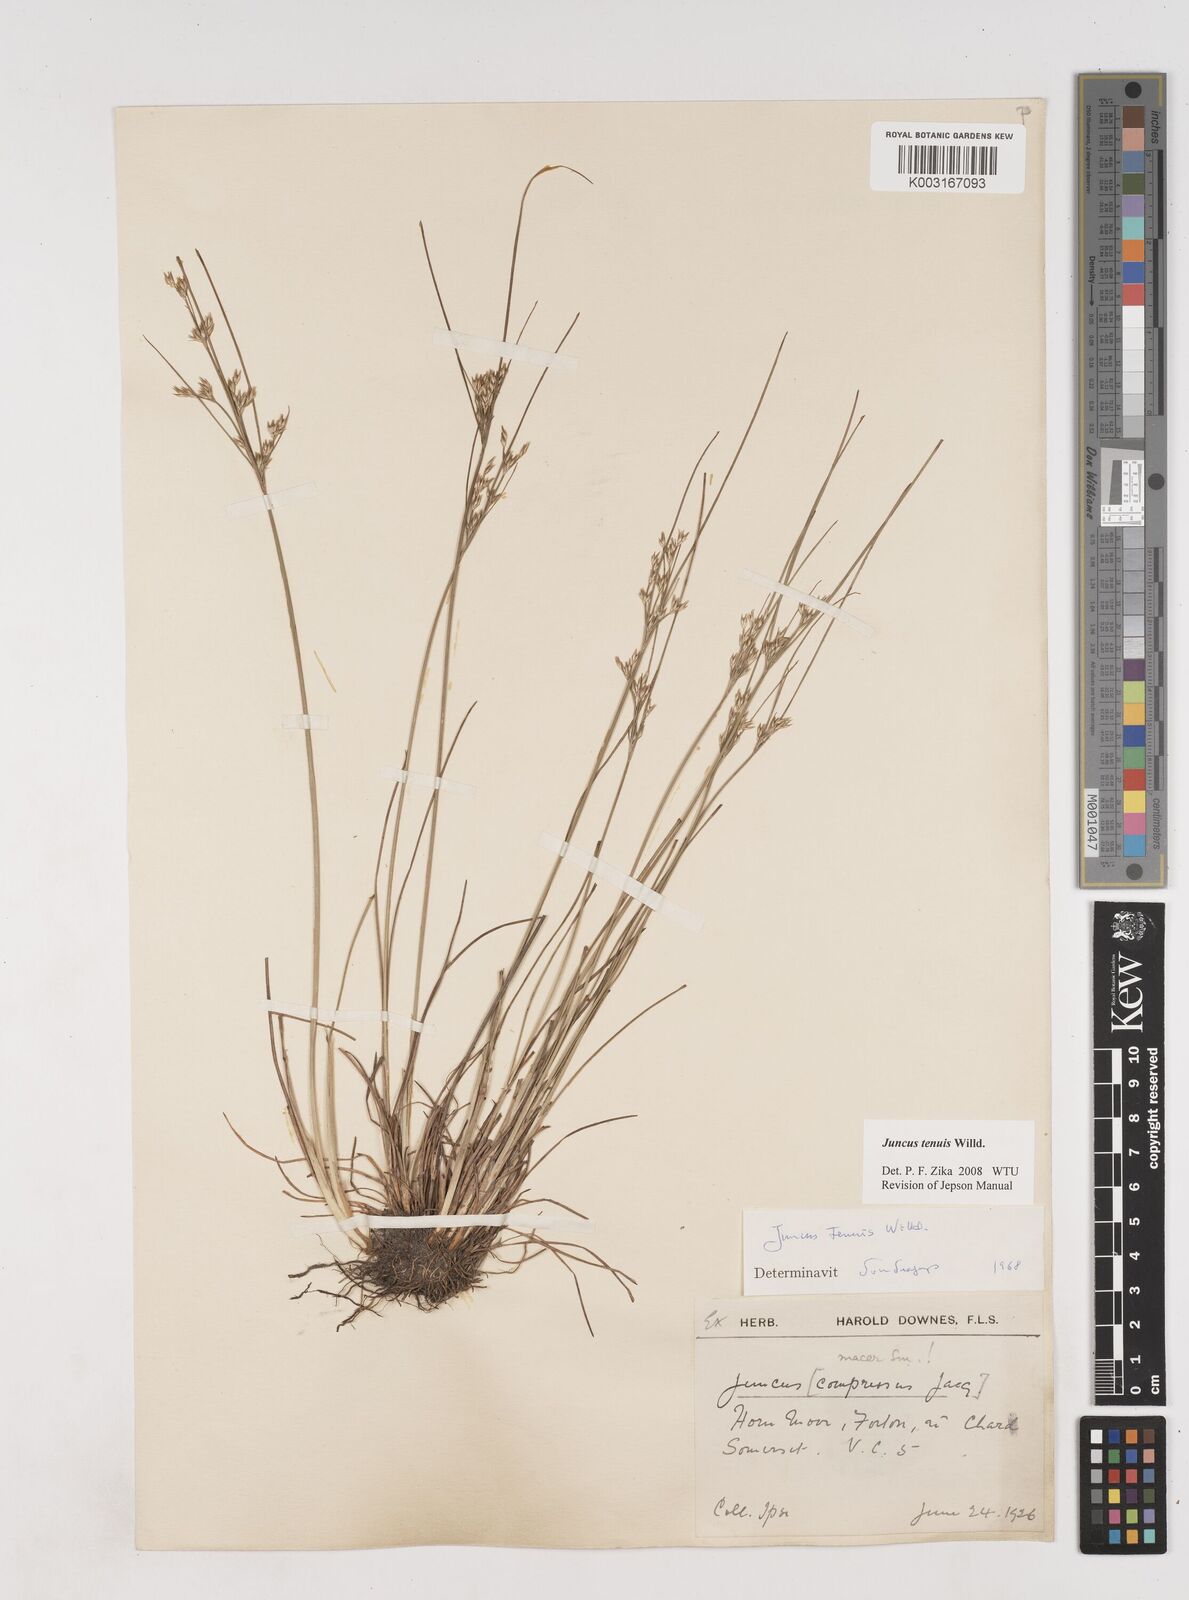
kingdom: Plantae
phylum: Tracheophyta
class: Liliopsida
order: Poales
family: Juncaceae
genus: Juncus
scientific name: Juncus tenuis
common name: Slender rush
